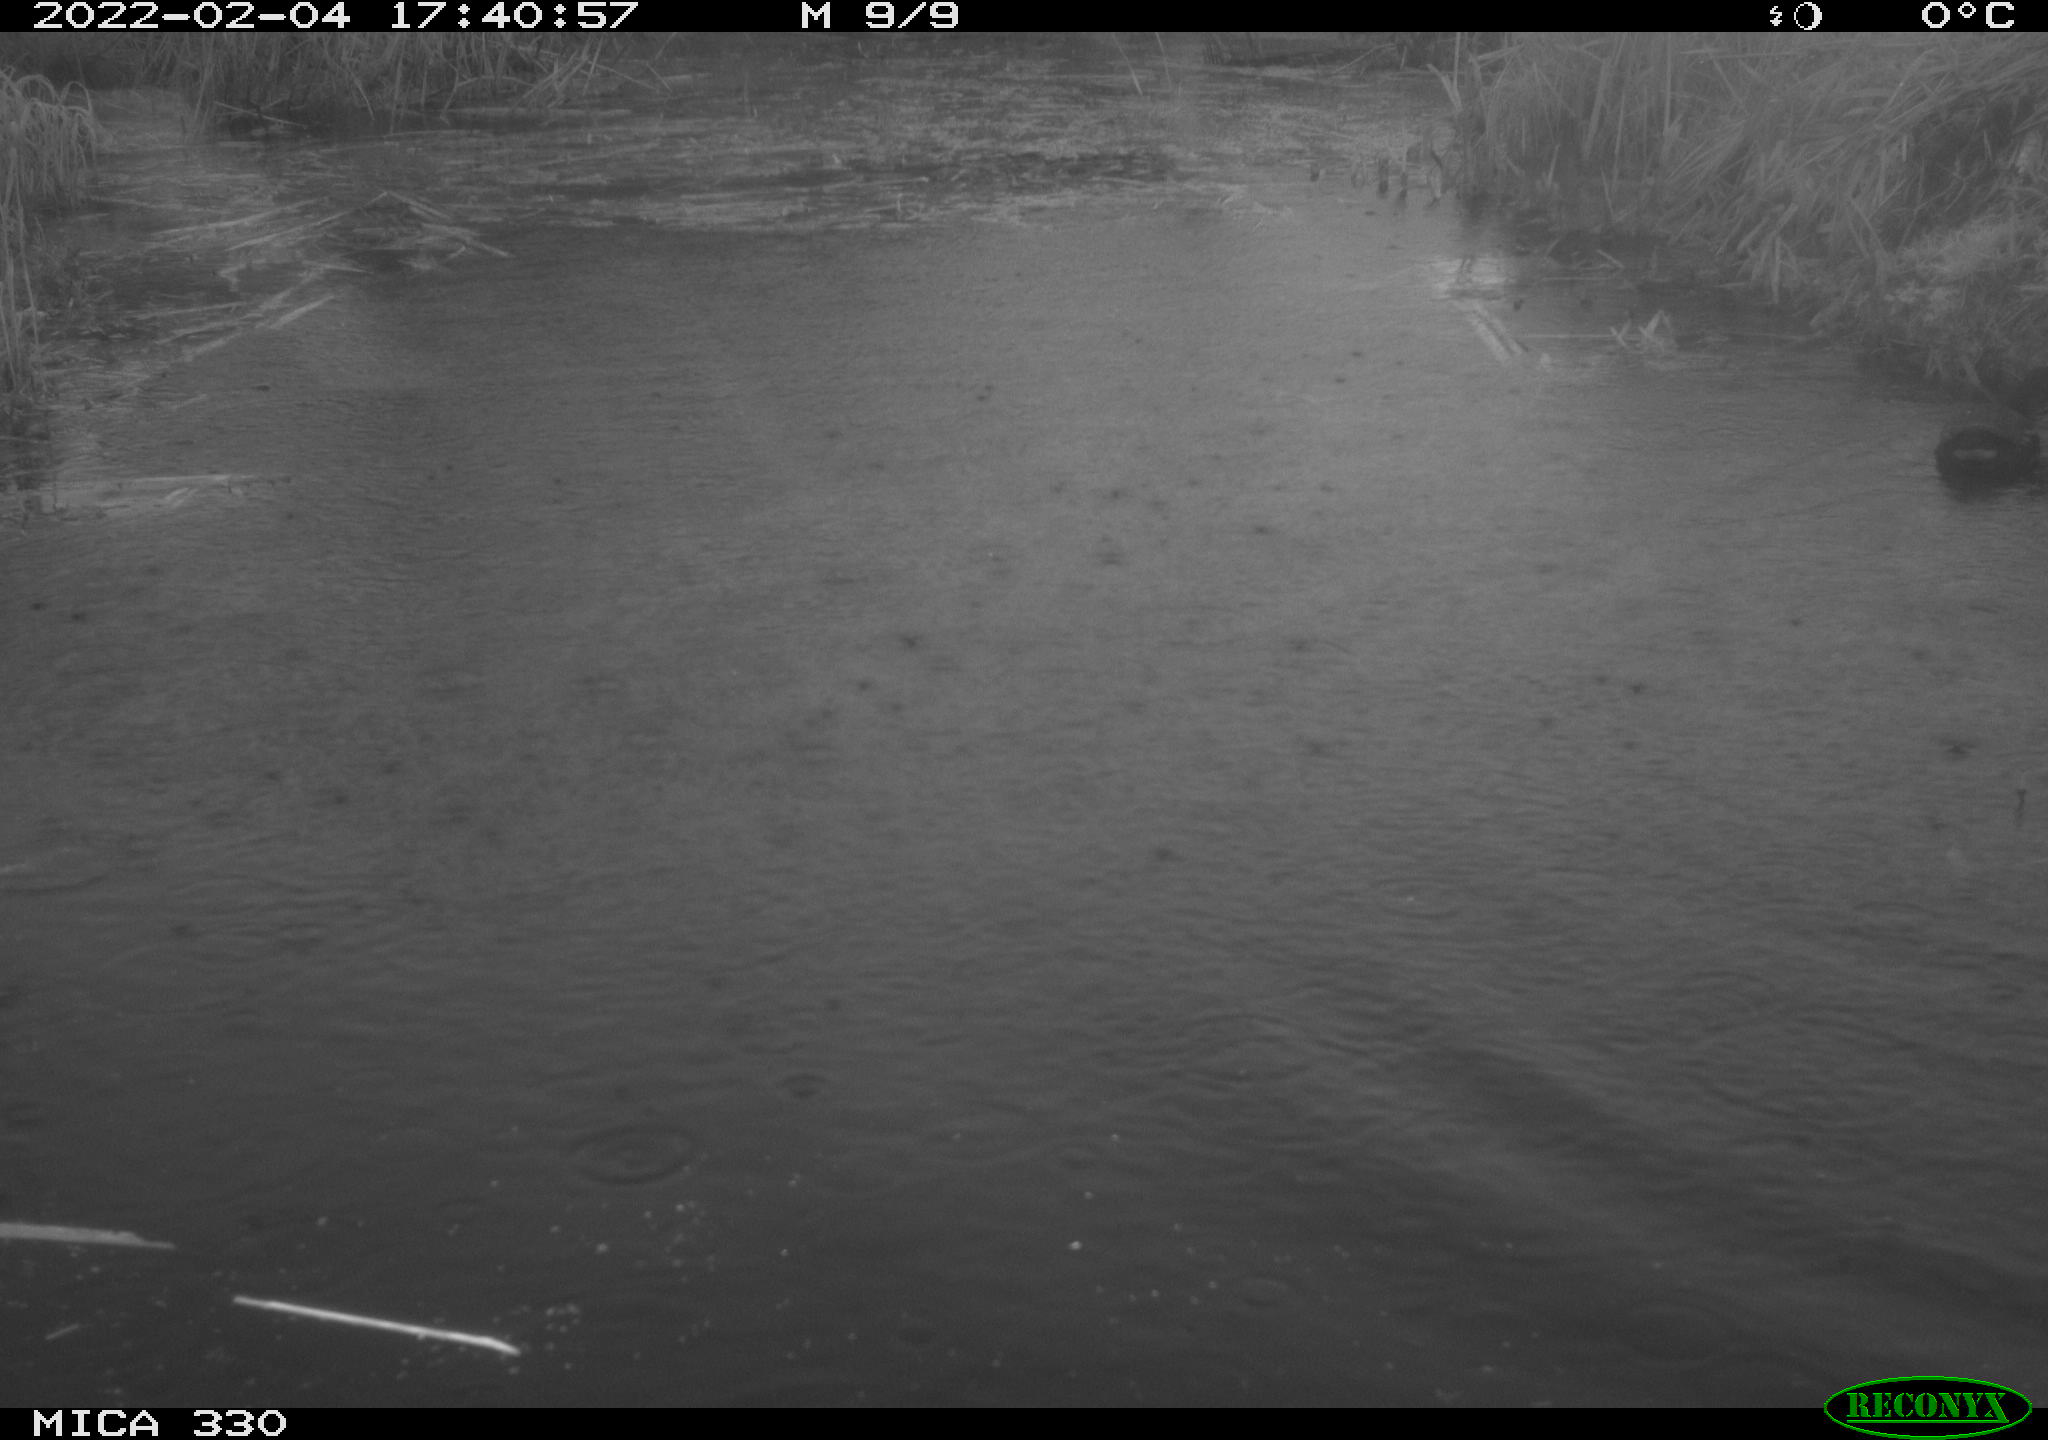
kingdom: Animalia
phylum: Chordata
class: Aves
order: Gruiformes
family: Rallidae
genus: Gallinula
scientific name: Gallinula chloropus
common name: Common moorhen
